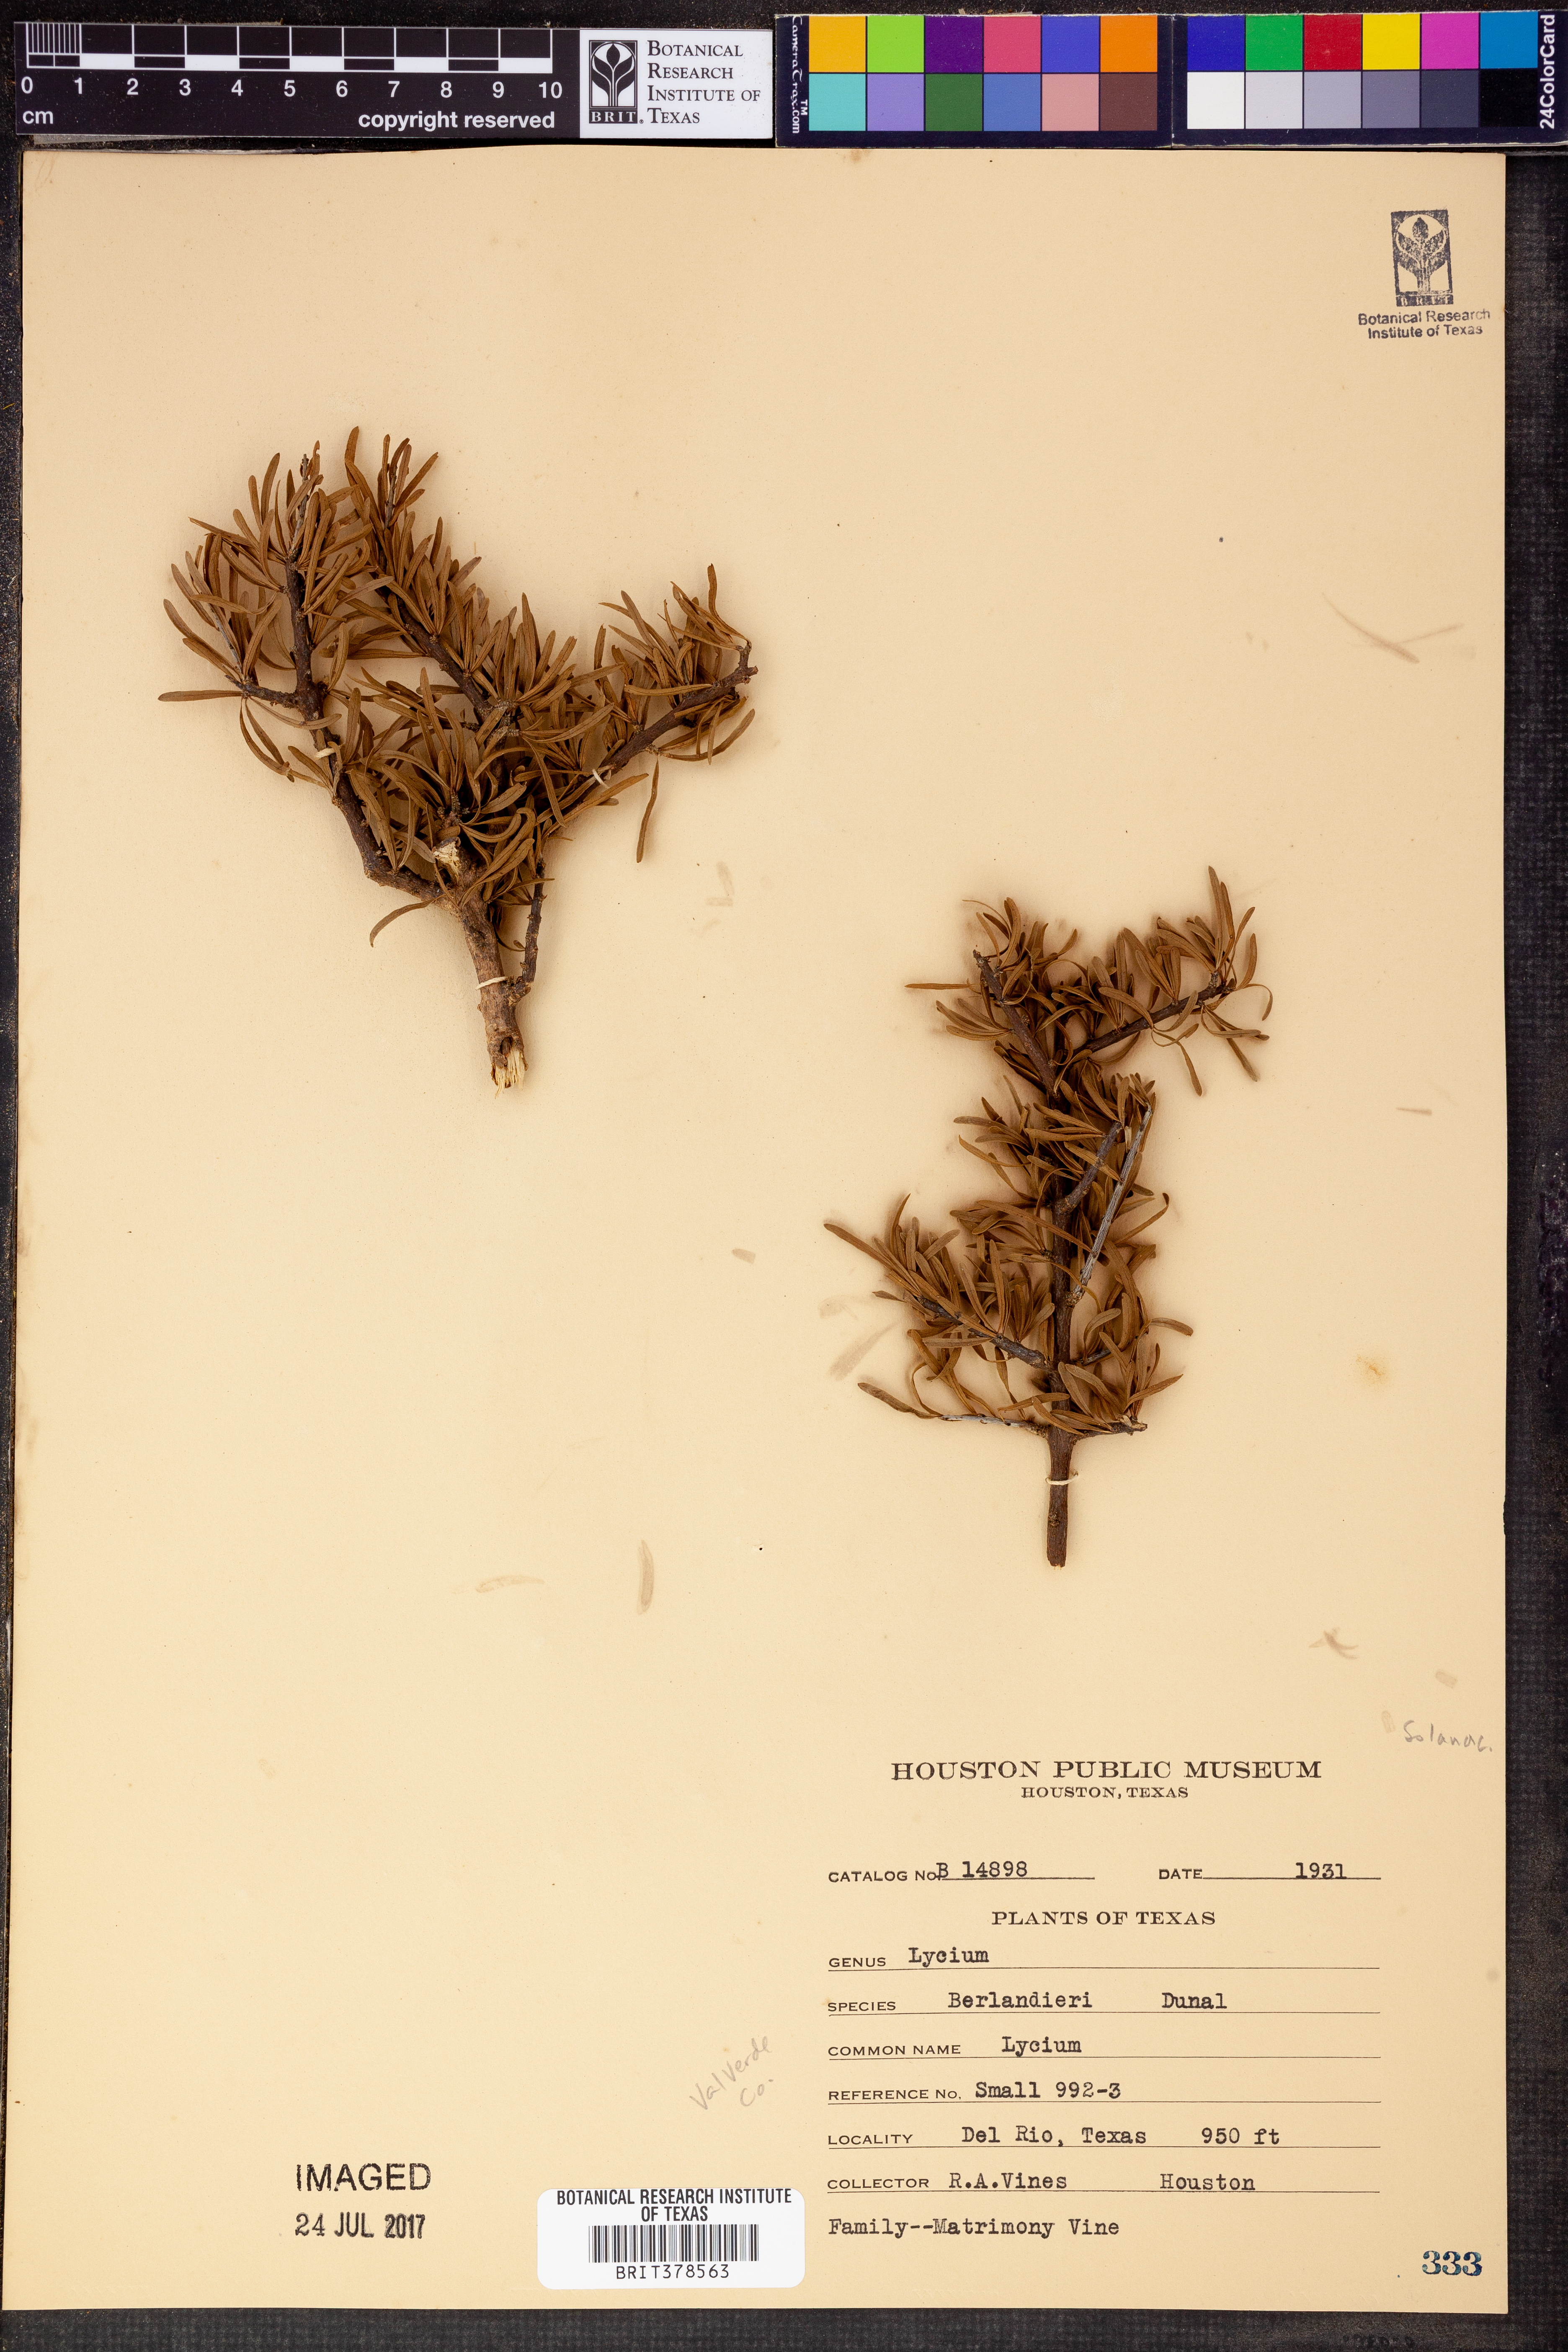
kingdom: Plantae
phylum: Tracheophyta
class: Magnoliopsida
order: Solanales
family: Solanaceae
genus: Lycium
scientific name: Lycium berlandieri
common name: Berlandier wolfberry
